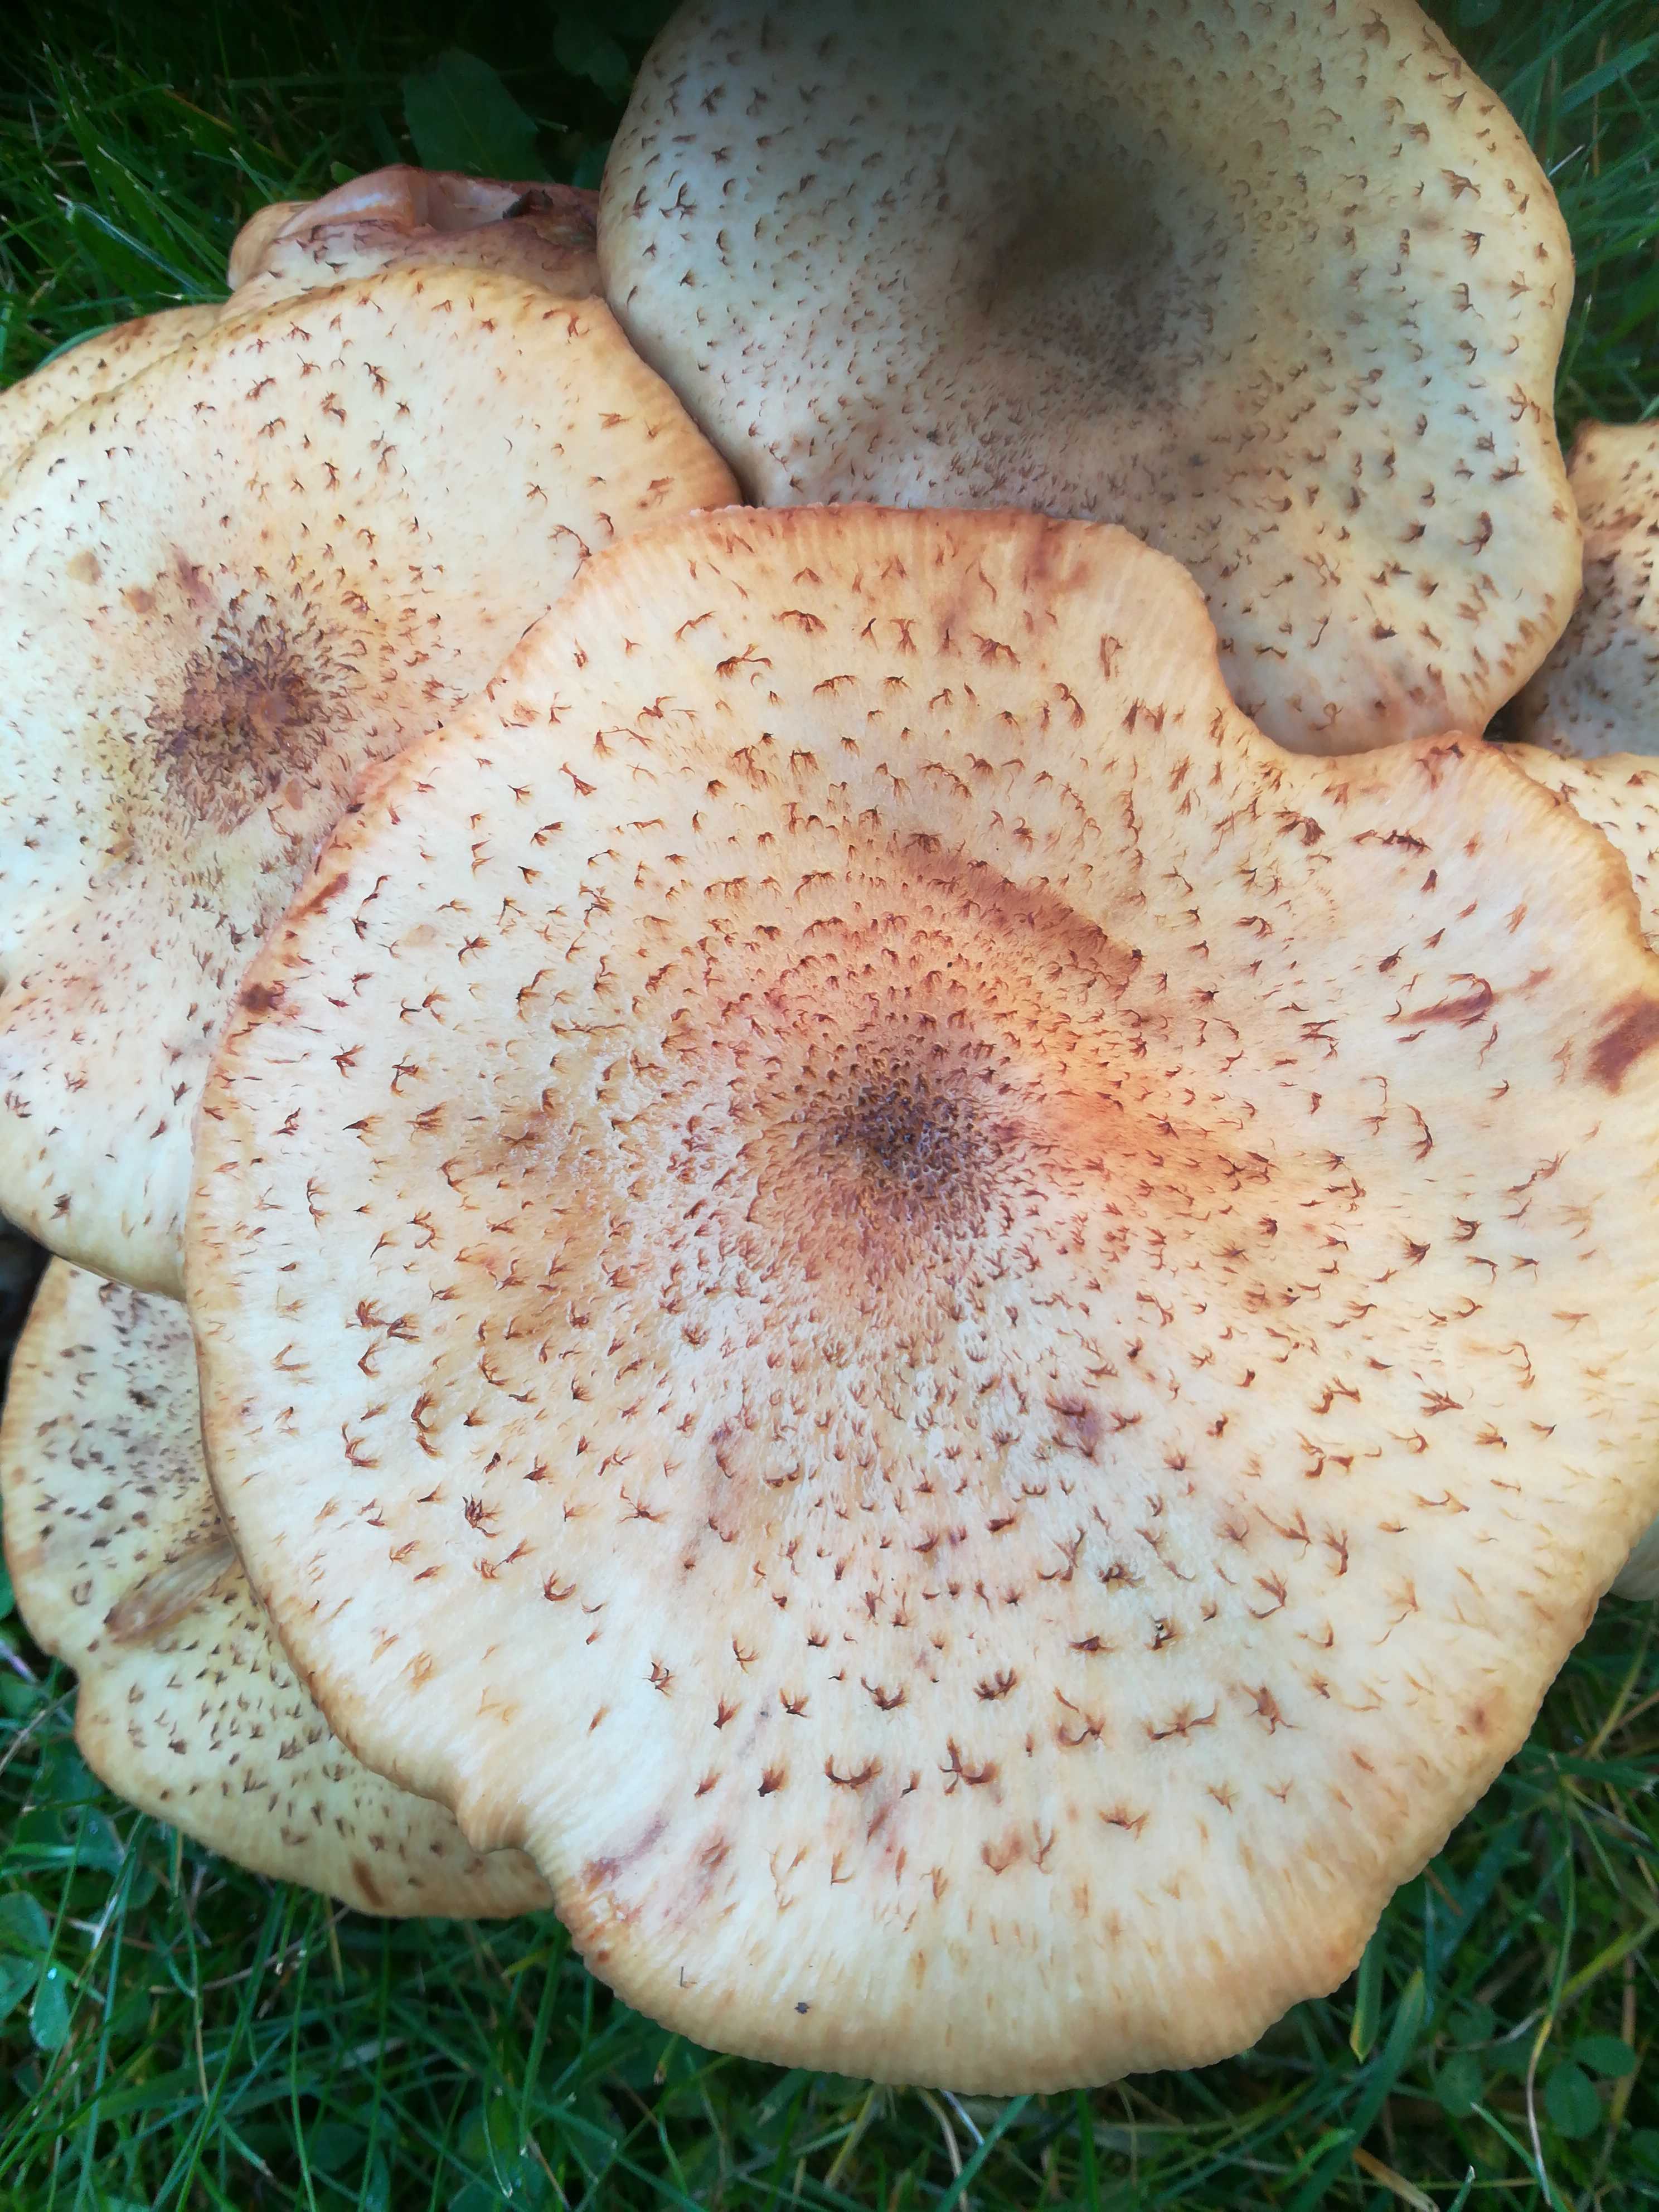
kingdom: Fungi
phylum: Basidiomycota
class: Agaricomycetes
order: Agaricales
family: Physalacriaceae
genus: Armillaria
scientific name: Armillaria
